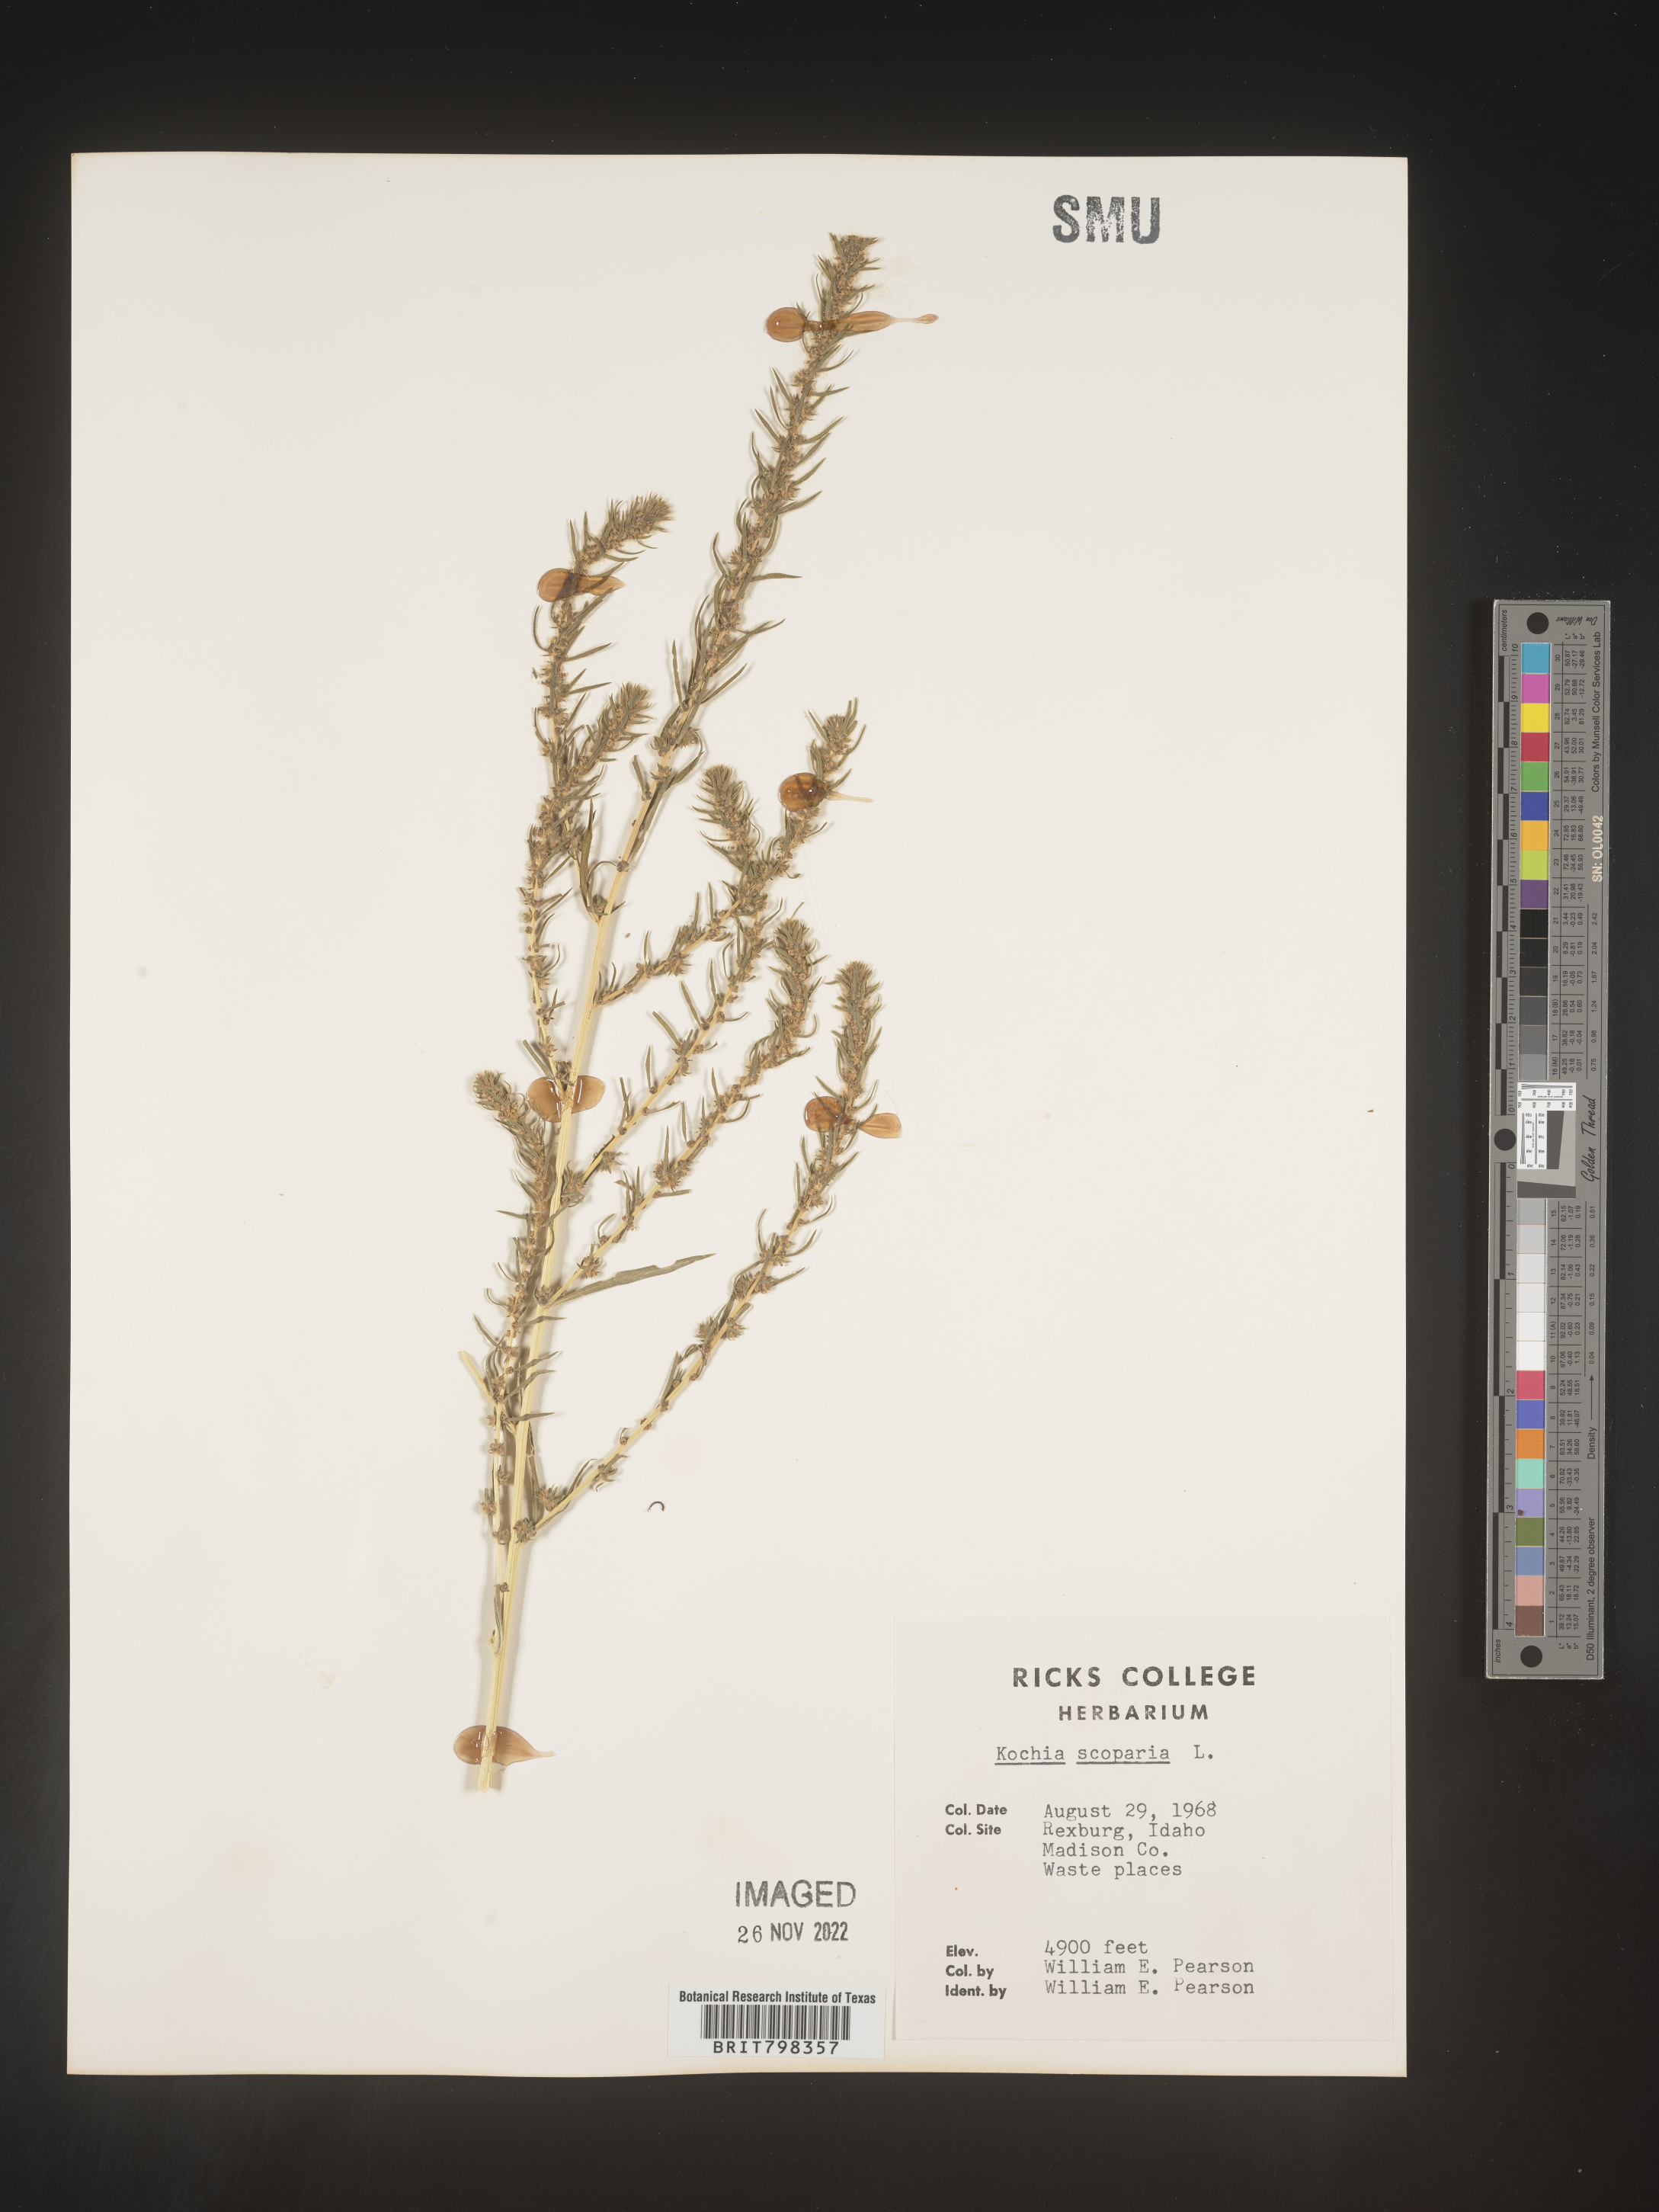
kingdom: Plantae
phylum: Tracheophyta
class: Magnoliopsida
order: Caryophyllales
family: Amaranthaceae
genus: Bassia
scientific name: Bassia
